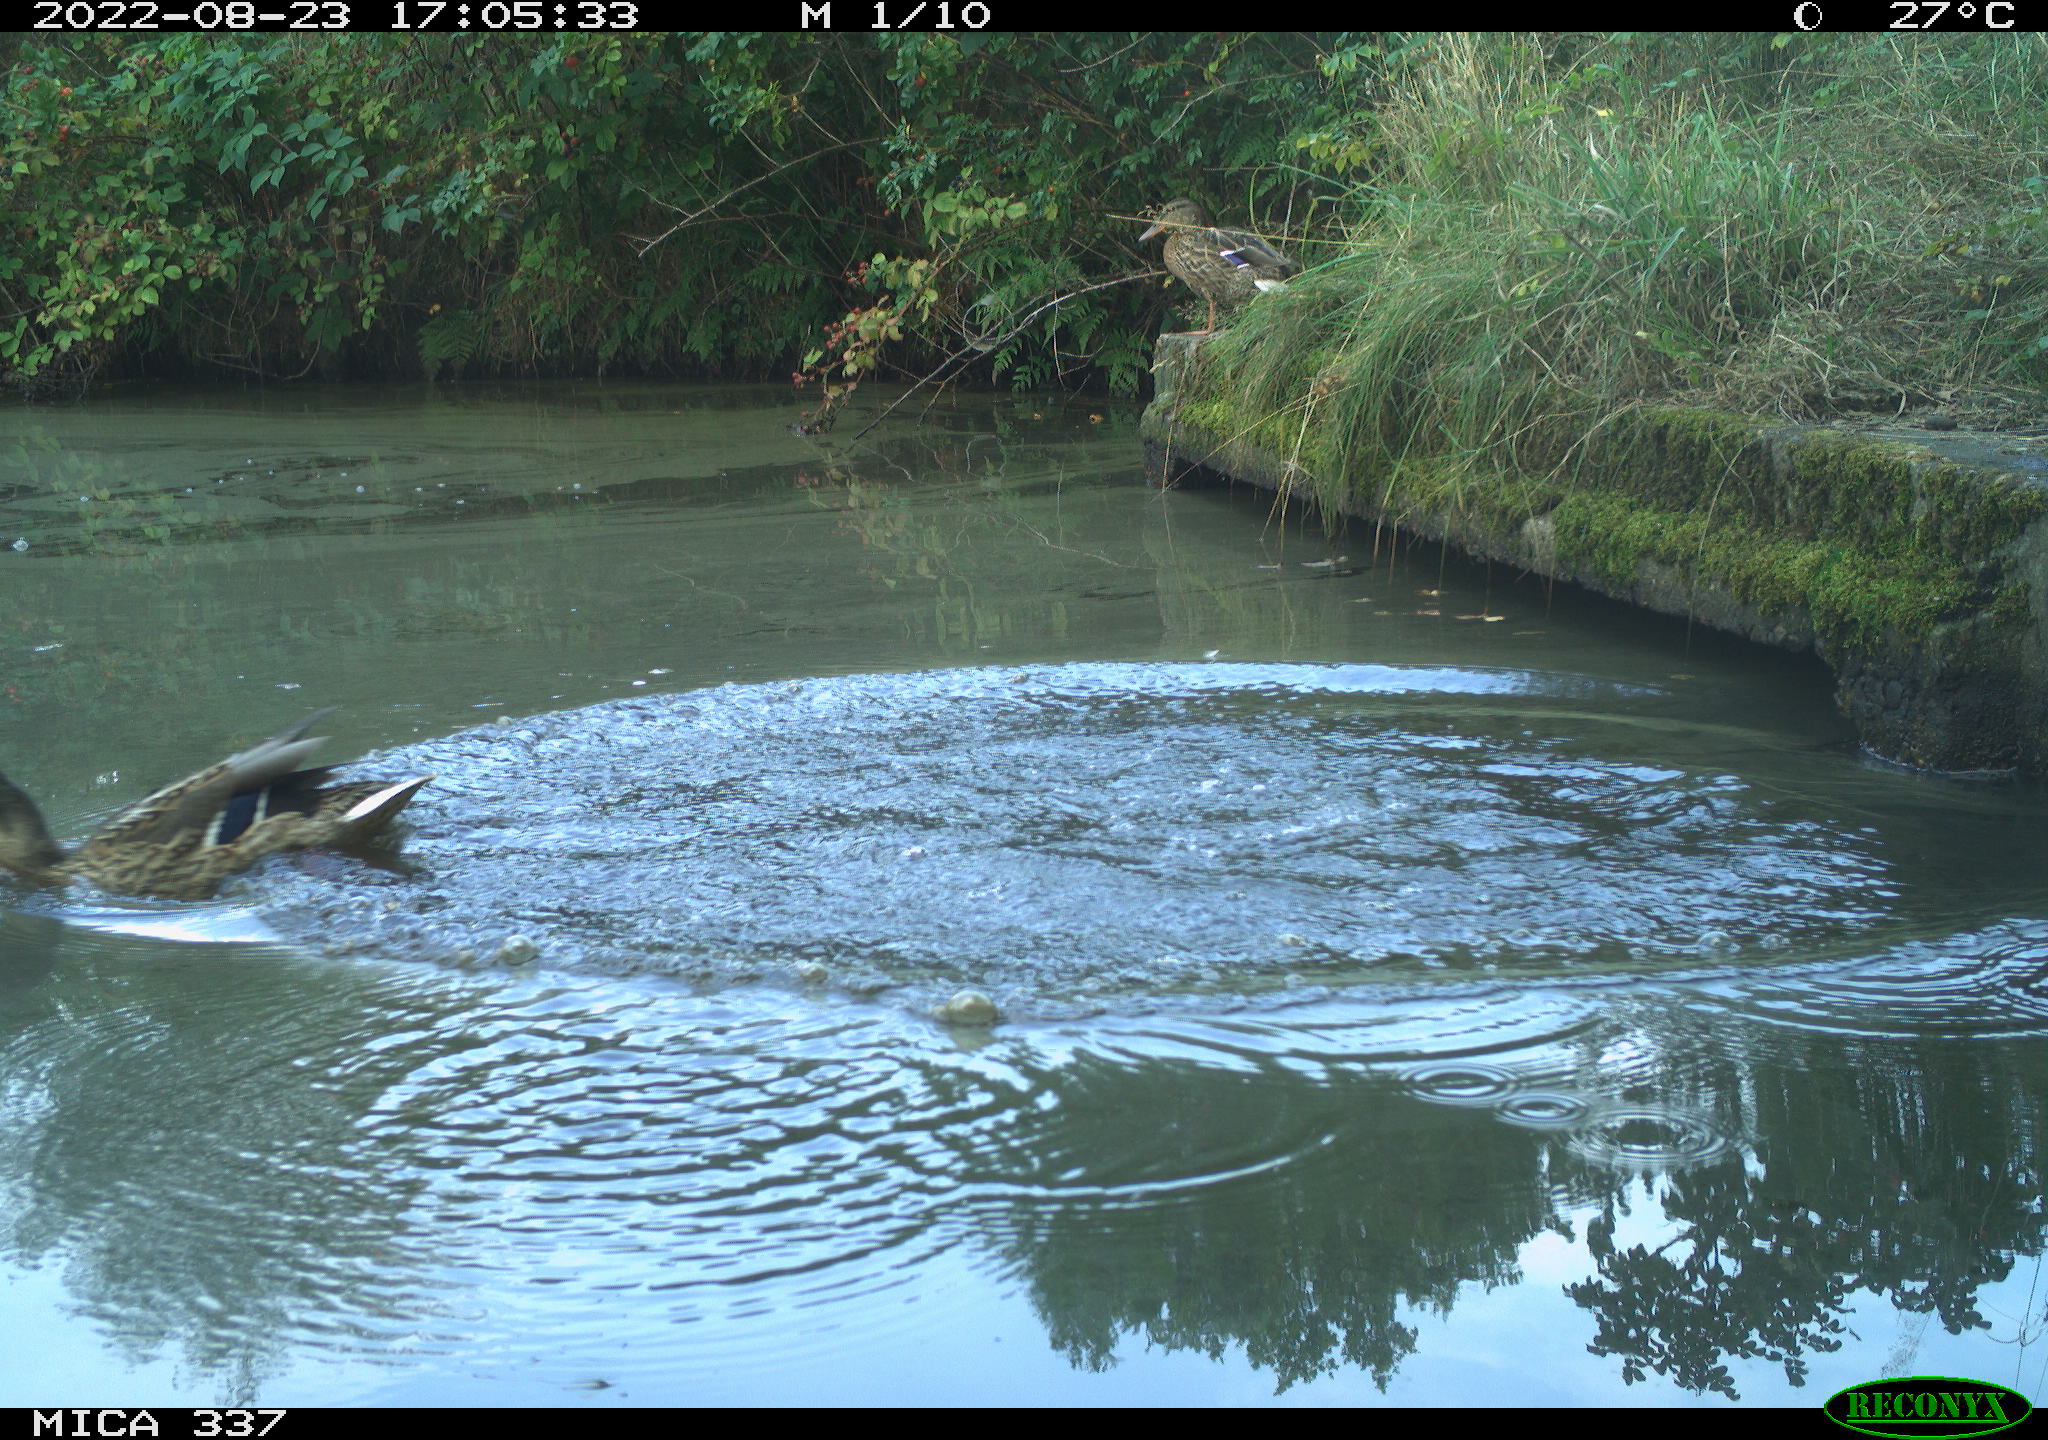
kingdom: Animalia
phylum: Chordata
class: Aves
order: Anseriformes
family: Anatidae
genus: Anas
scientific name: Anas platyrhynchos
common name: Mallard
